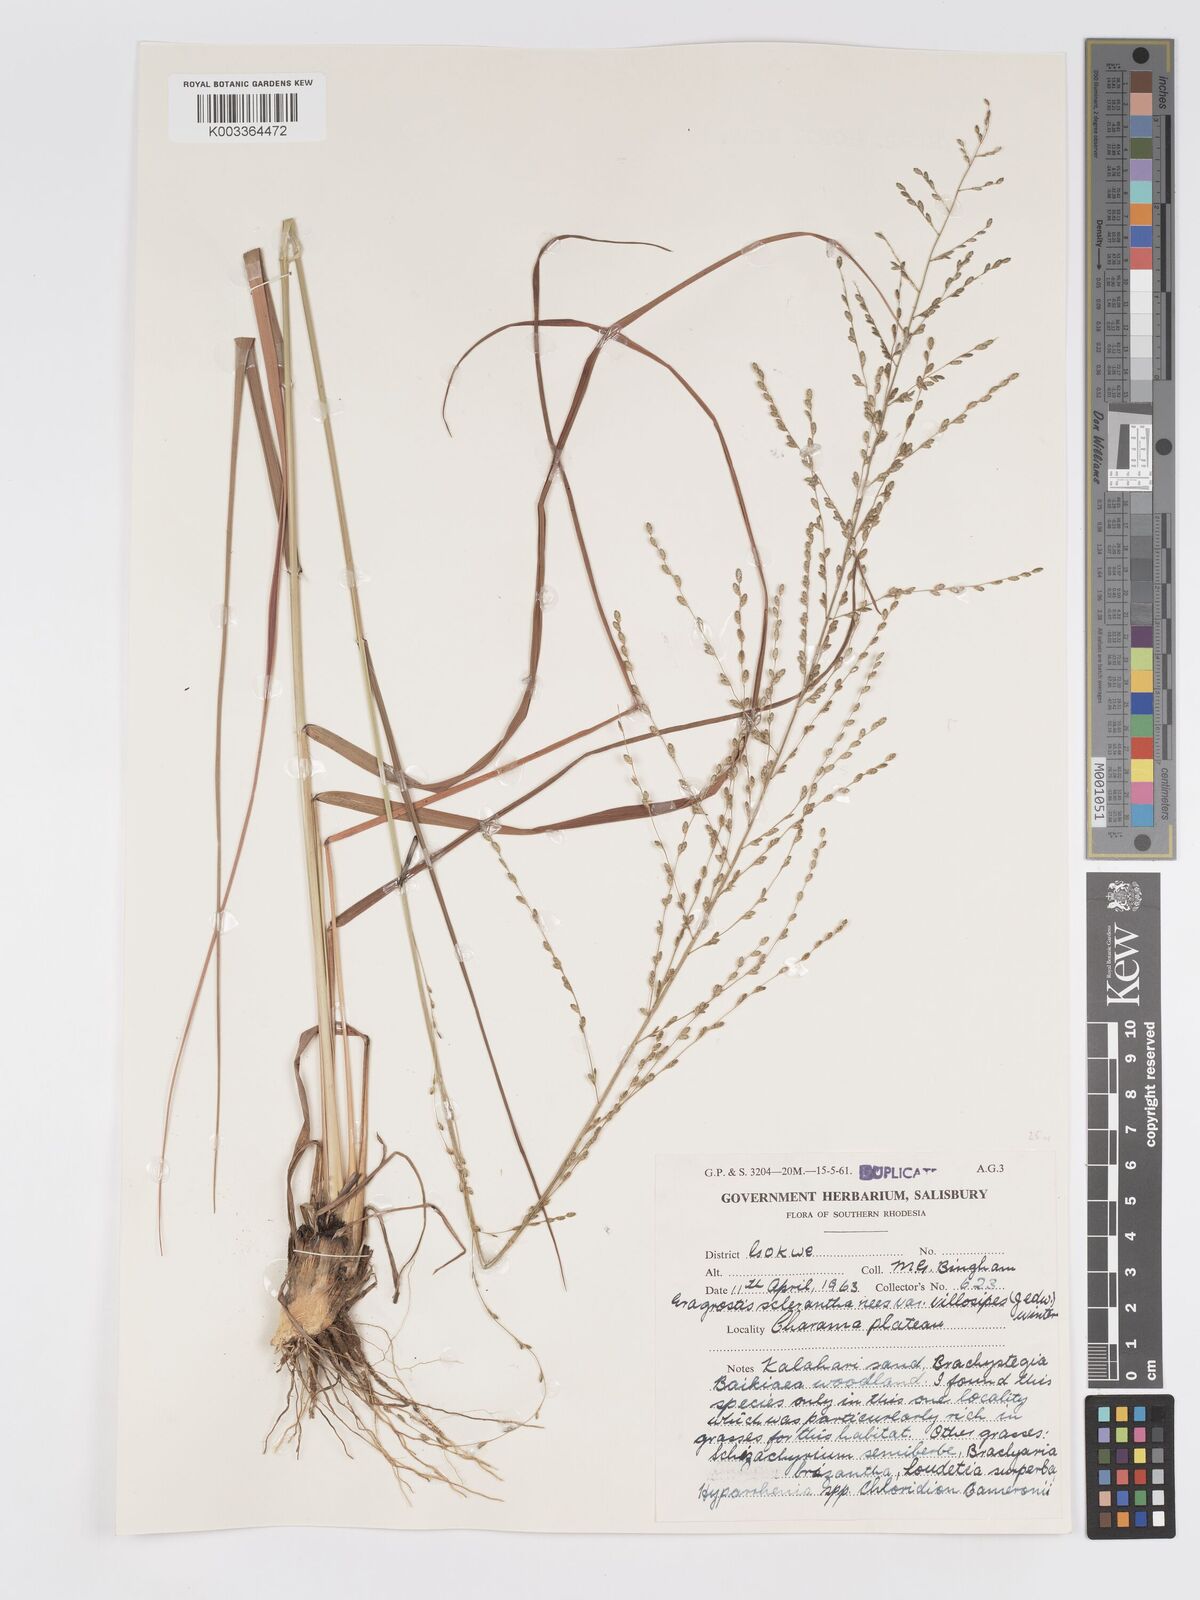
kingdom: Plantae
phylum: Tracheophyta
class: Liliopsida
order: Poales
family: Poaceae
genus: Eragrostis
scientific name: Eragrostis sclerantha
